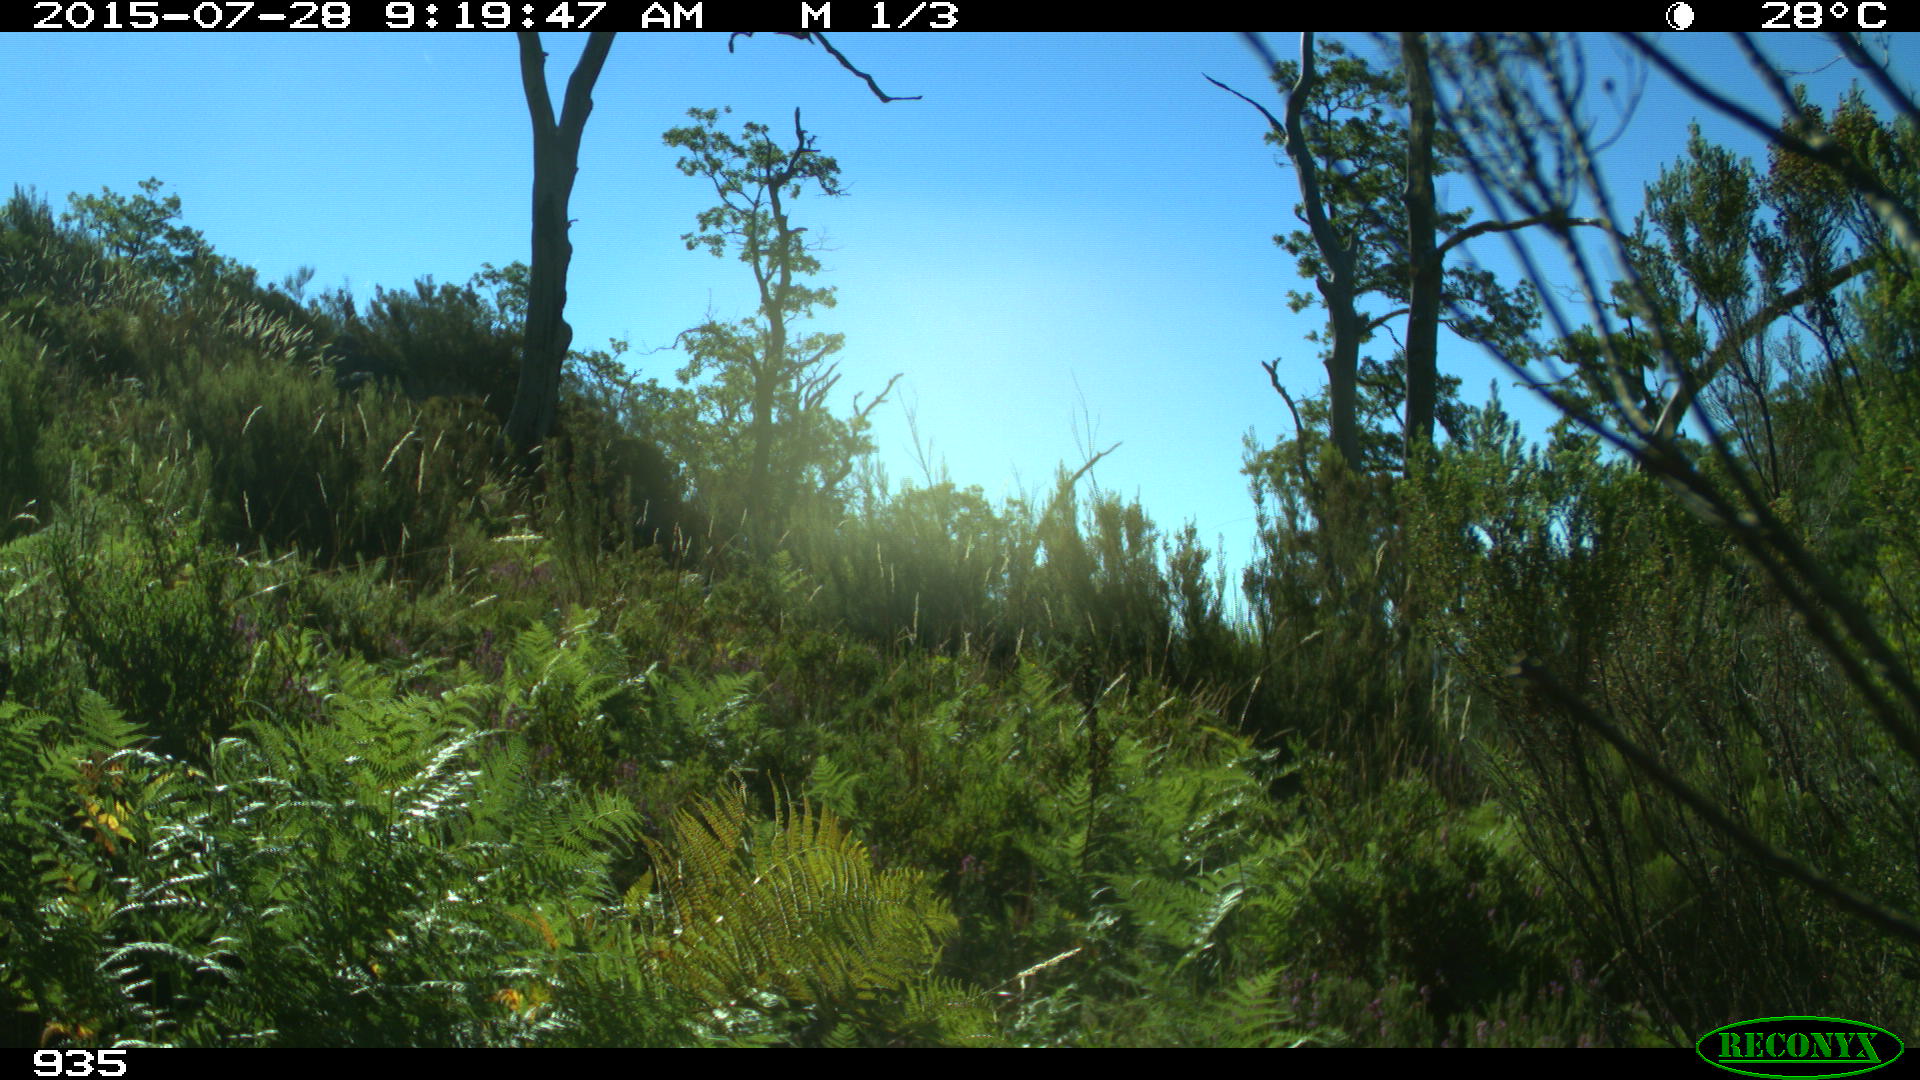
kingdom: Animalia
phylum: Chordata
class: Mammalia
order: Artiodactyla
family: Bovidae
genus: Bos
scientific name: Bos taurus
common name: Domesticated cattle
